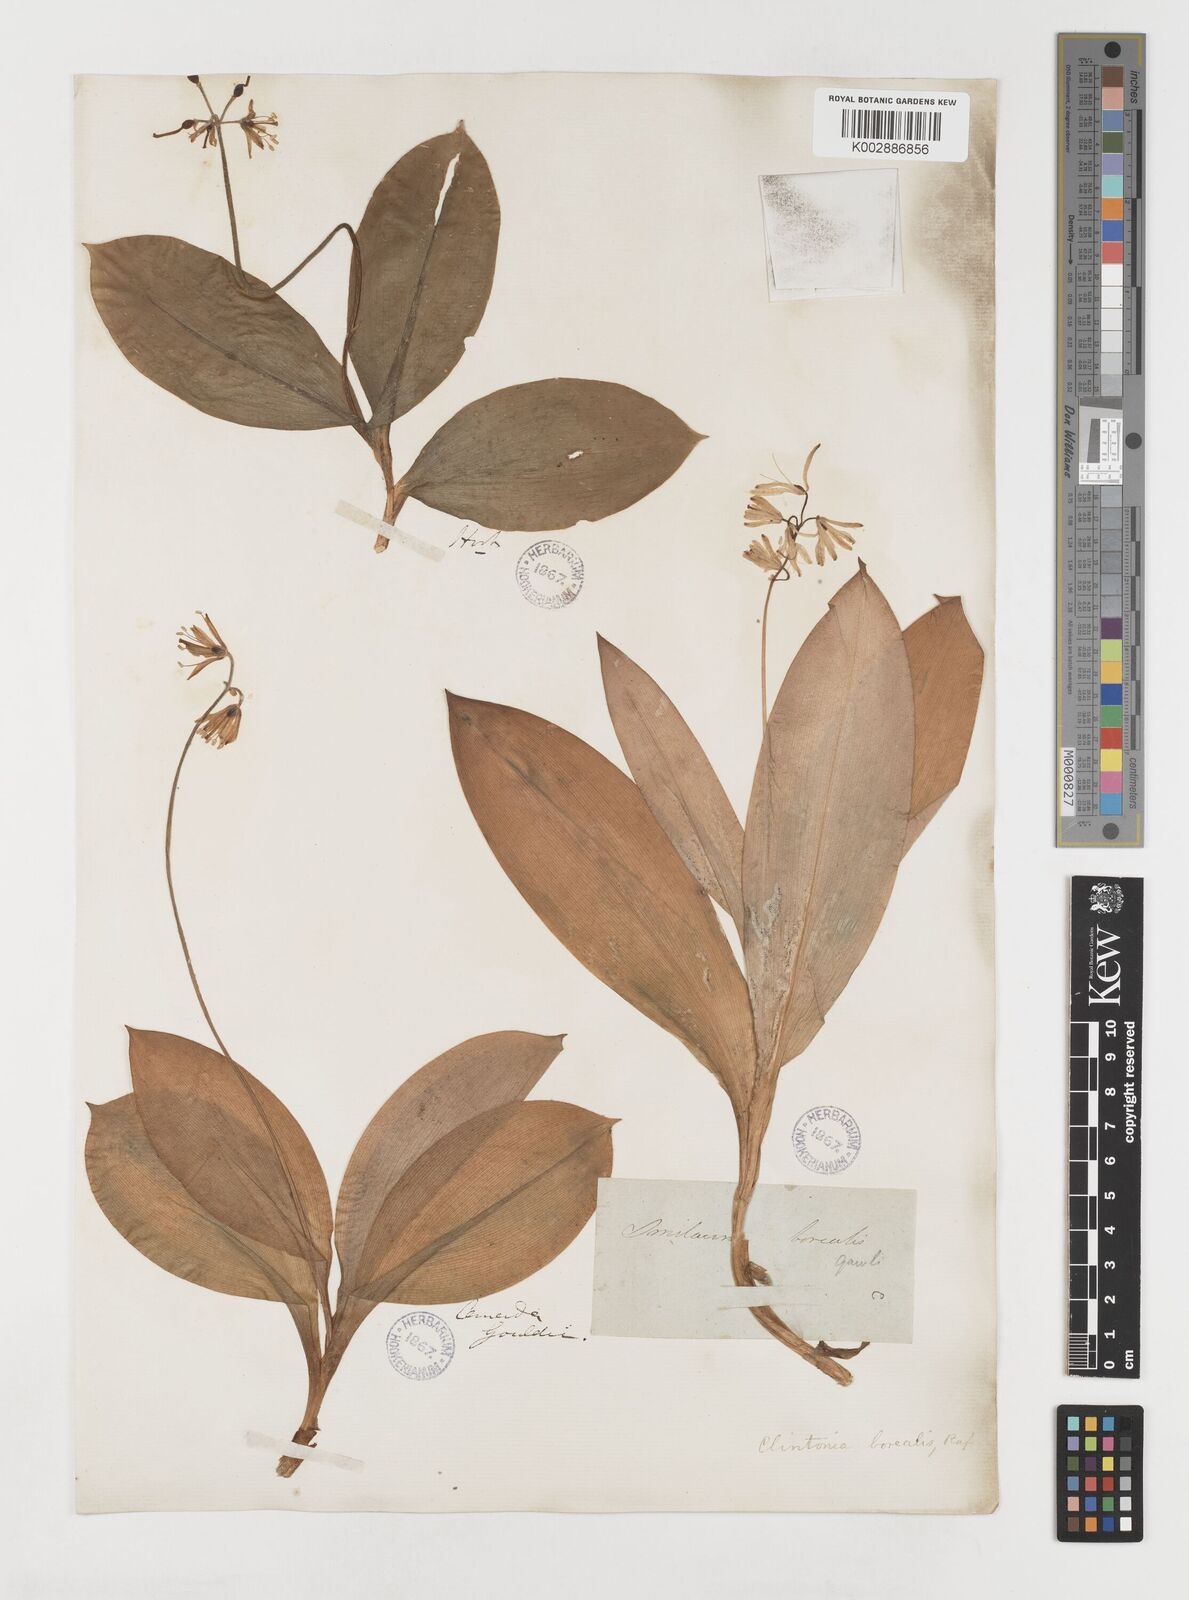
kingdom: Plantae
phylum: Tracheophyta
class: Liliopsida
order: Liliales
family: Liliaceae
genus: Clintonia
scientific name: Clintonia borealis
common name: Yellow clintonia
